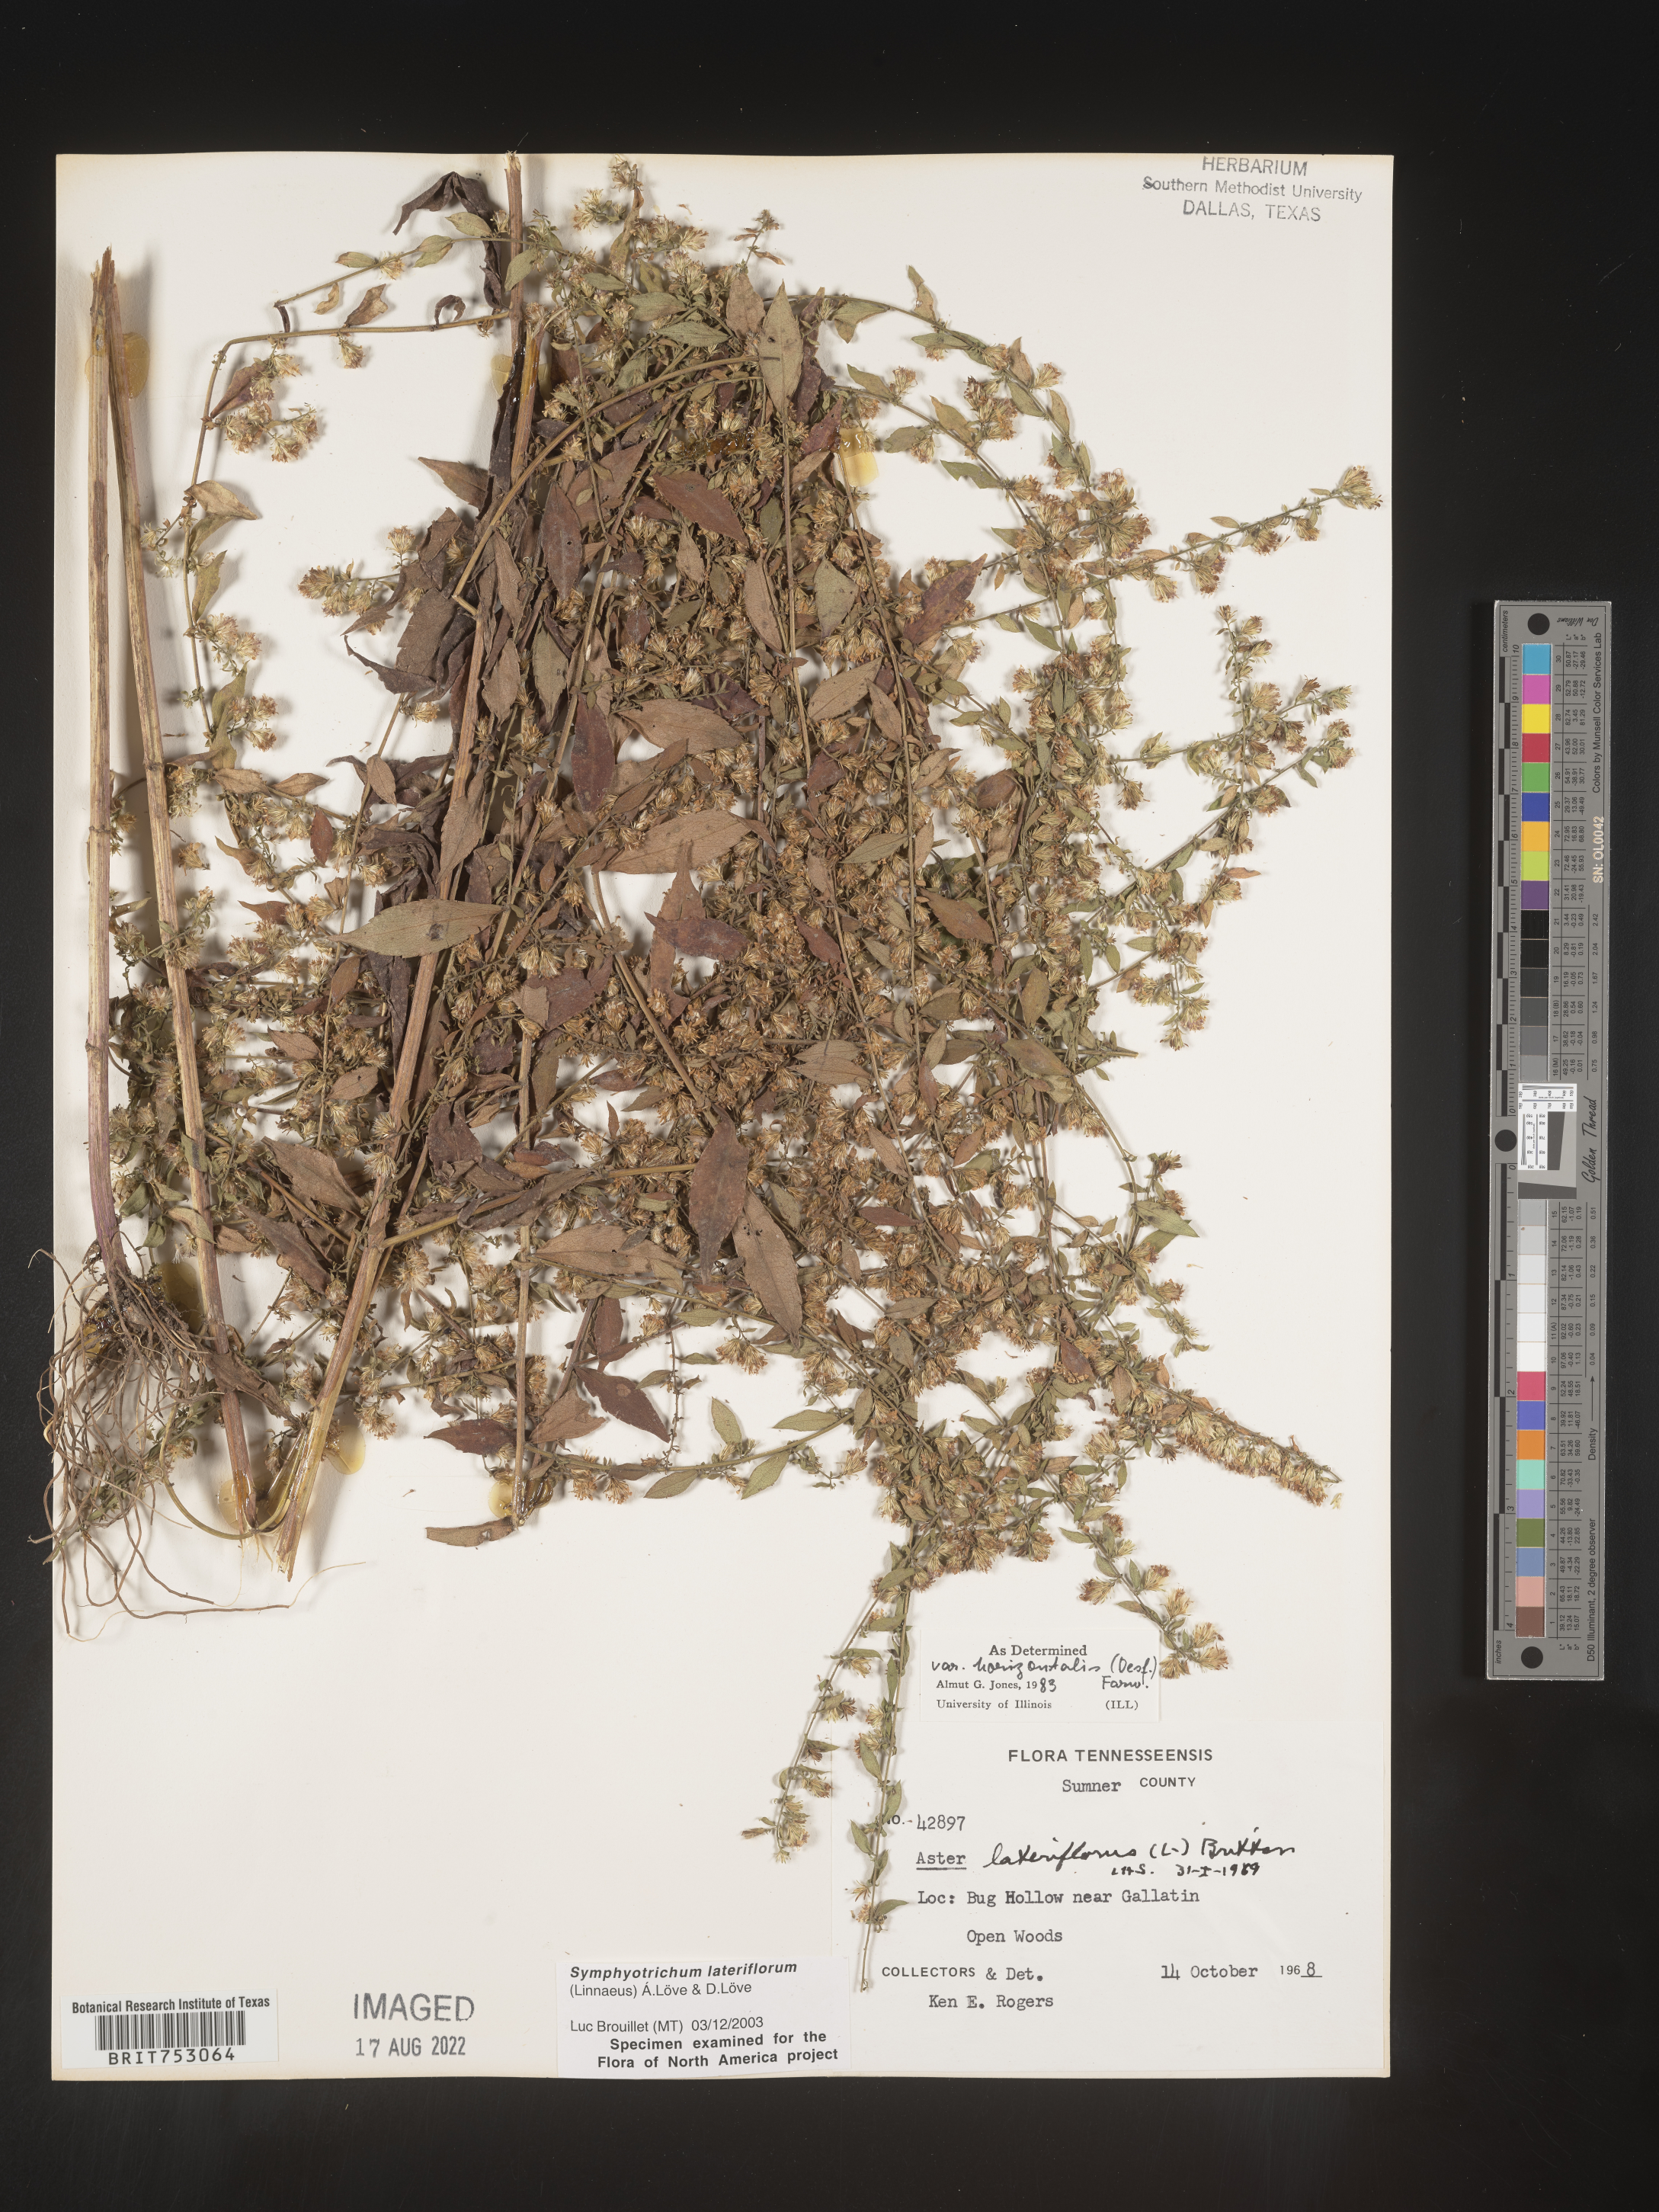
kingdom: Plantae
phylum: Tracheophyta
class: Magnoliopsida
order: Asterales
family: Asteraceae
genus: Symphyotrichum
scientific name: Symphyotrichum lateriflorum
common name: Calico aster
